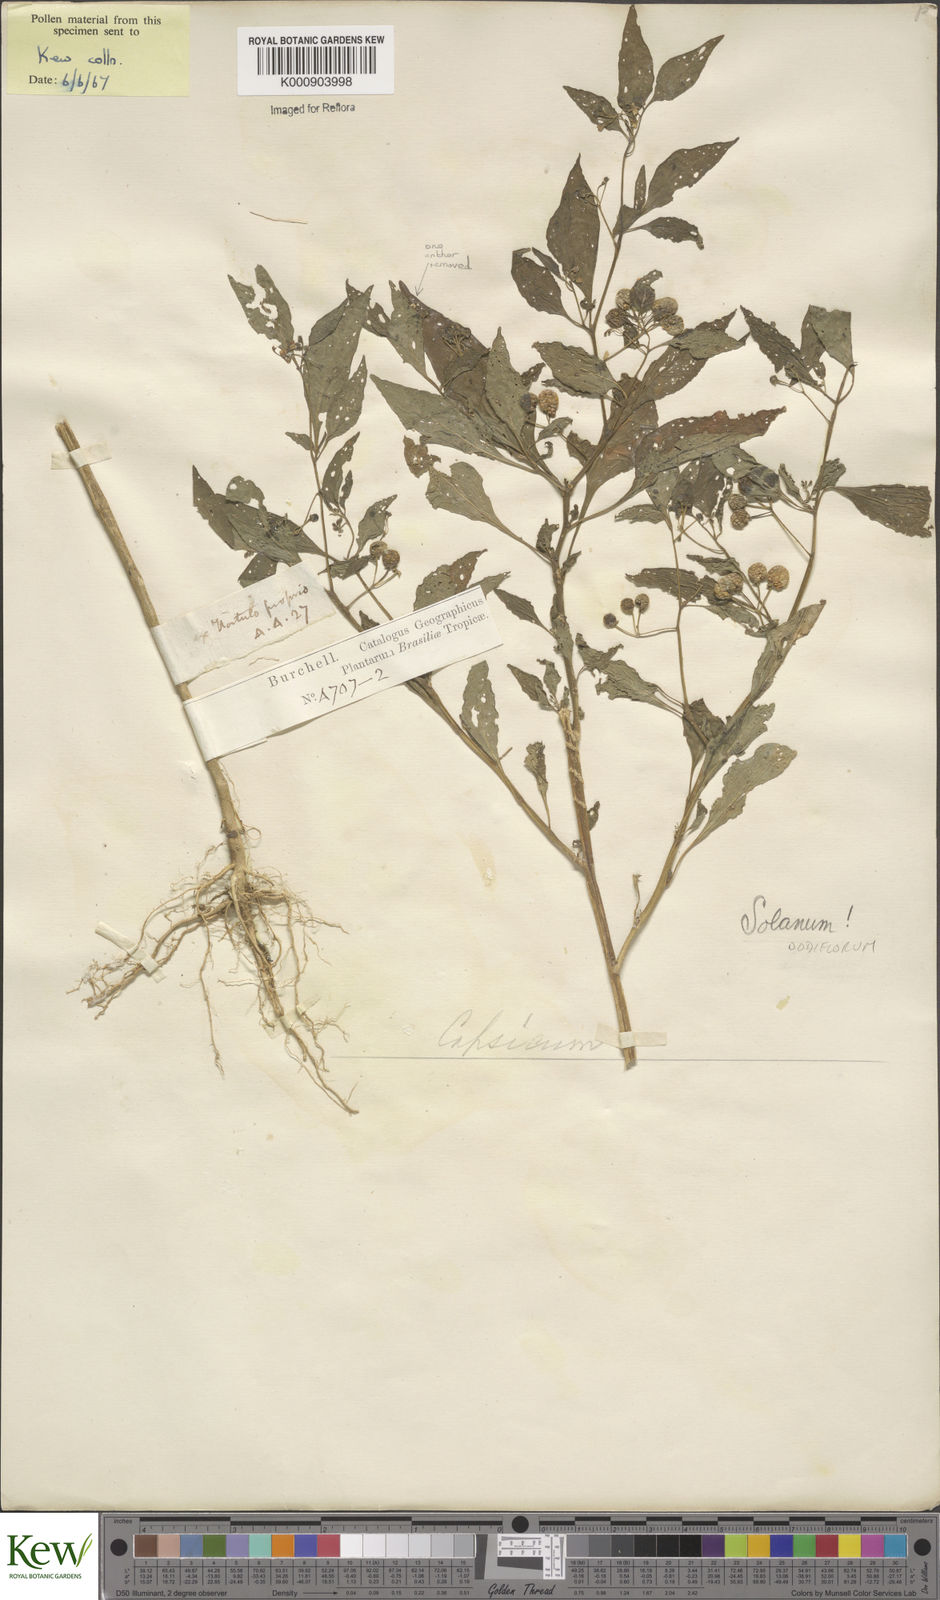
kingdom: Plantae
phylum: Tracheophyta
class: Magnoliopsida
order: Solanales
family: Solanaceae
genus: Solanum
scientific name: Solanum americanum
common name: American black nightshade
